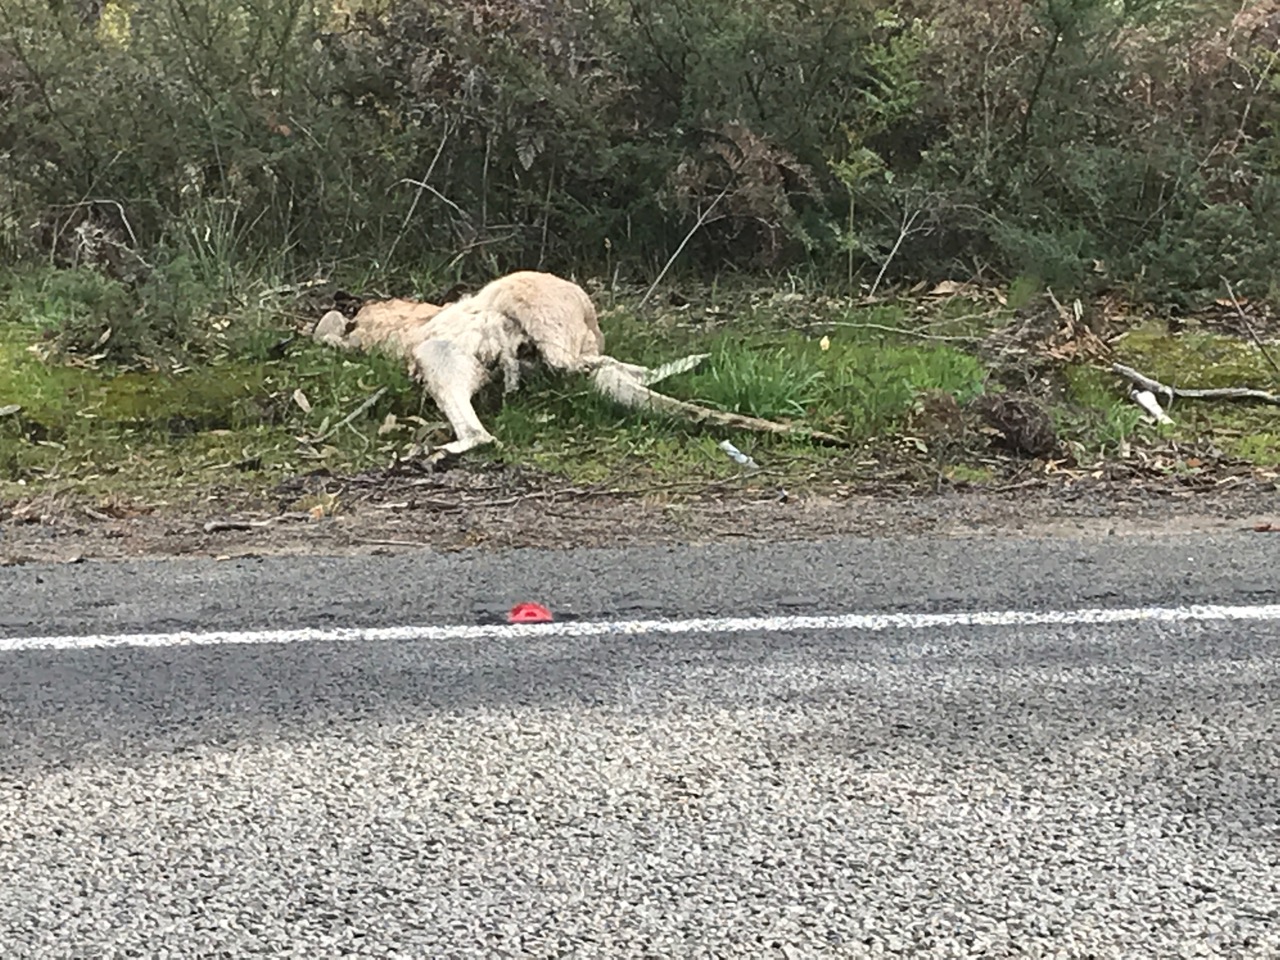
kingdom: Animalia
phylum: Chordata
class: Mammalia
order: Diprotodontia
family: Macropodidae
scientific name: Macropodidae
